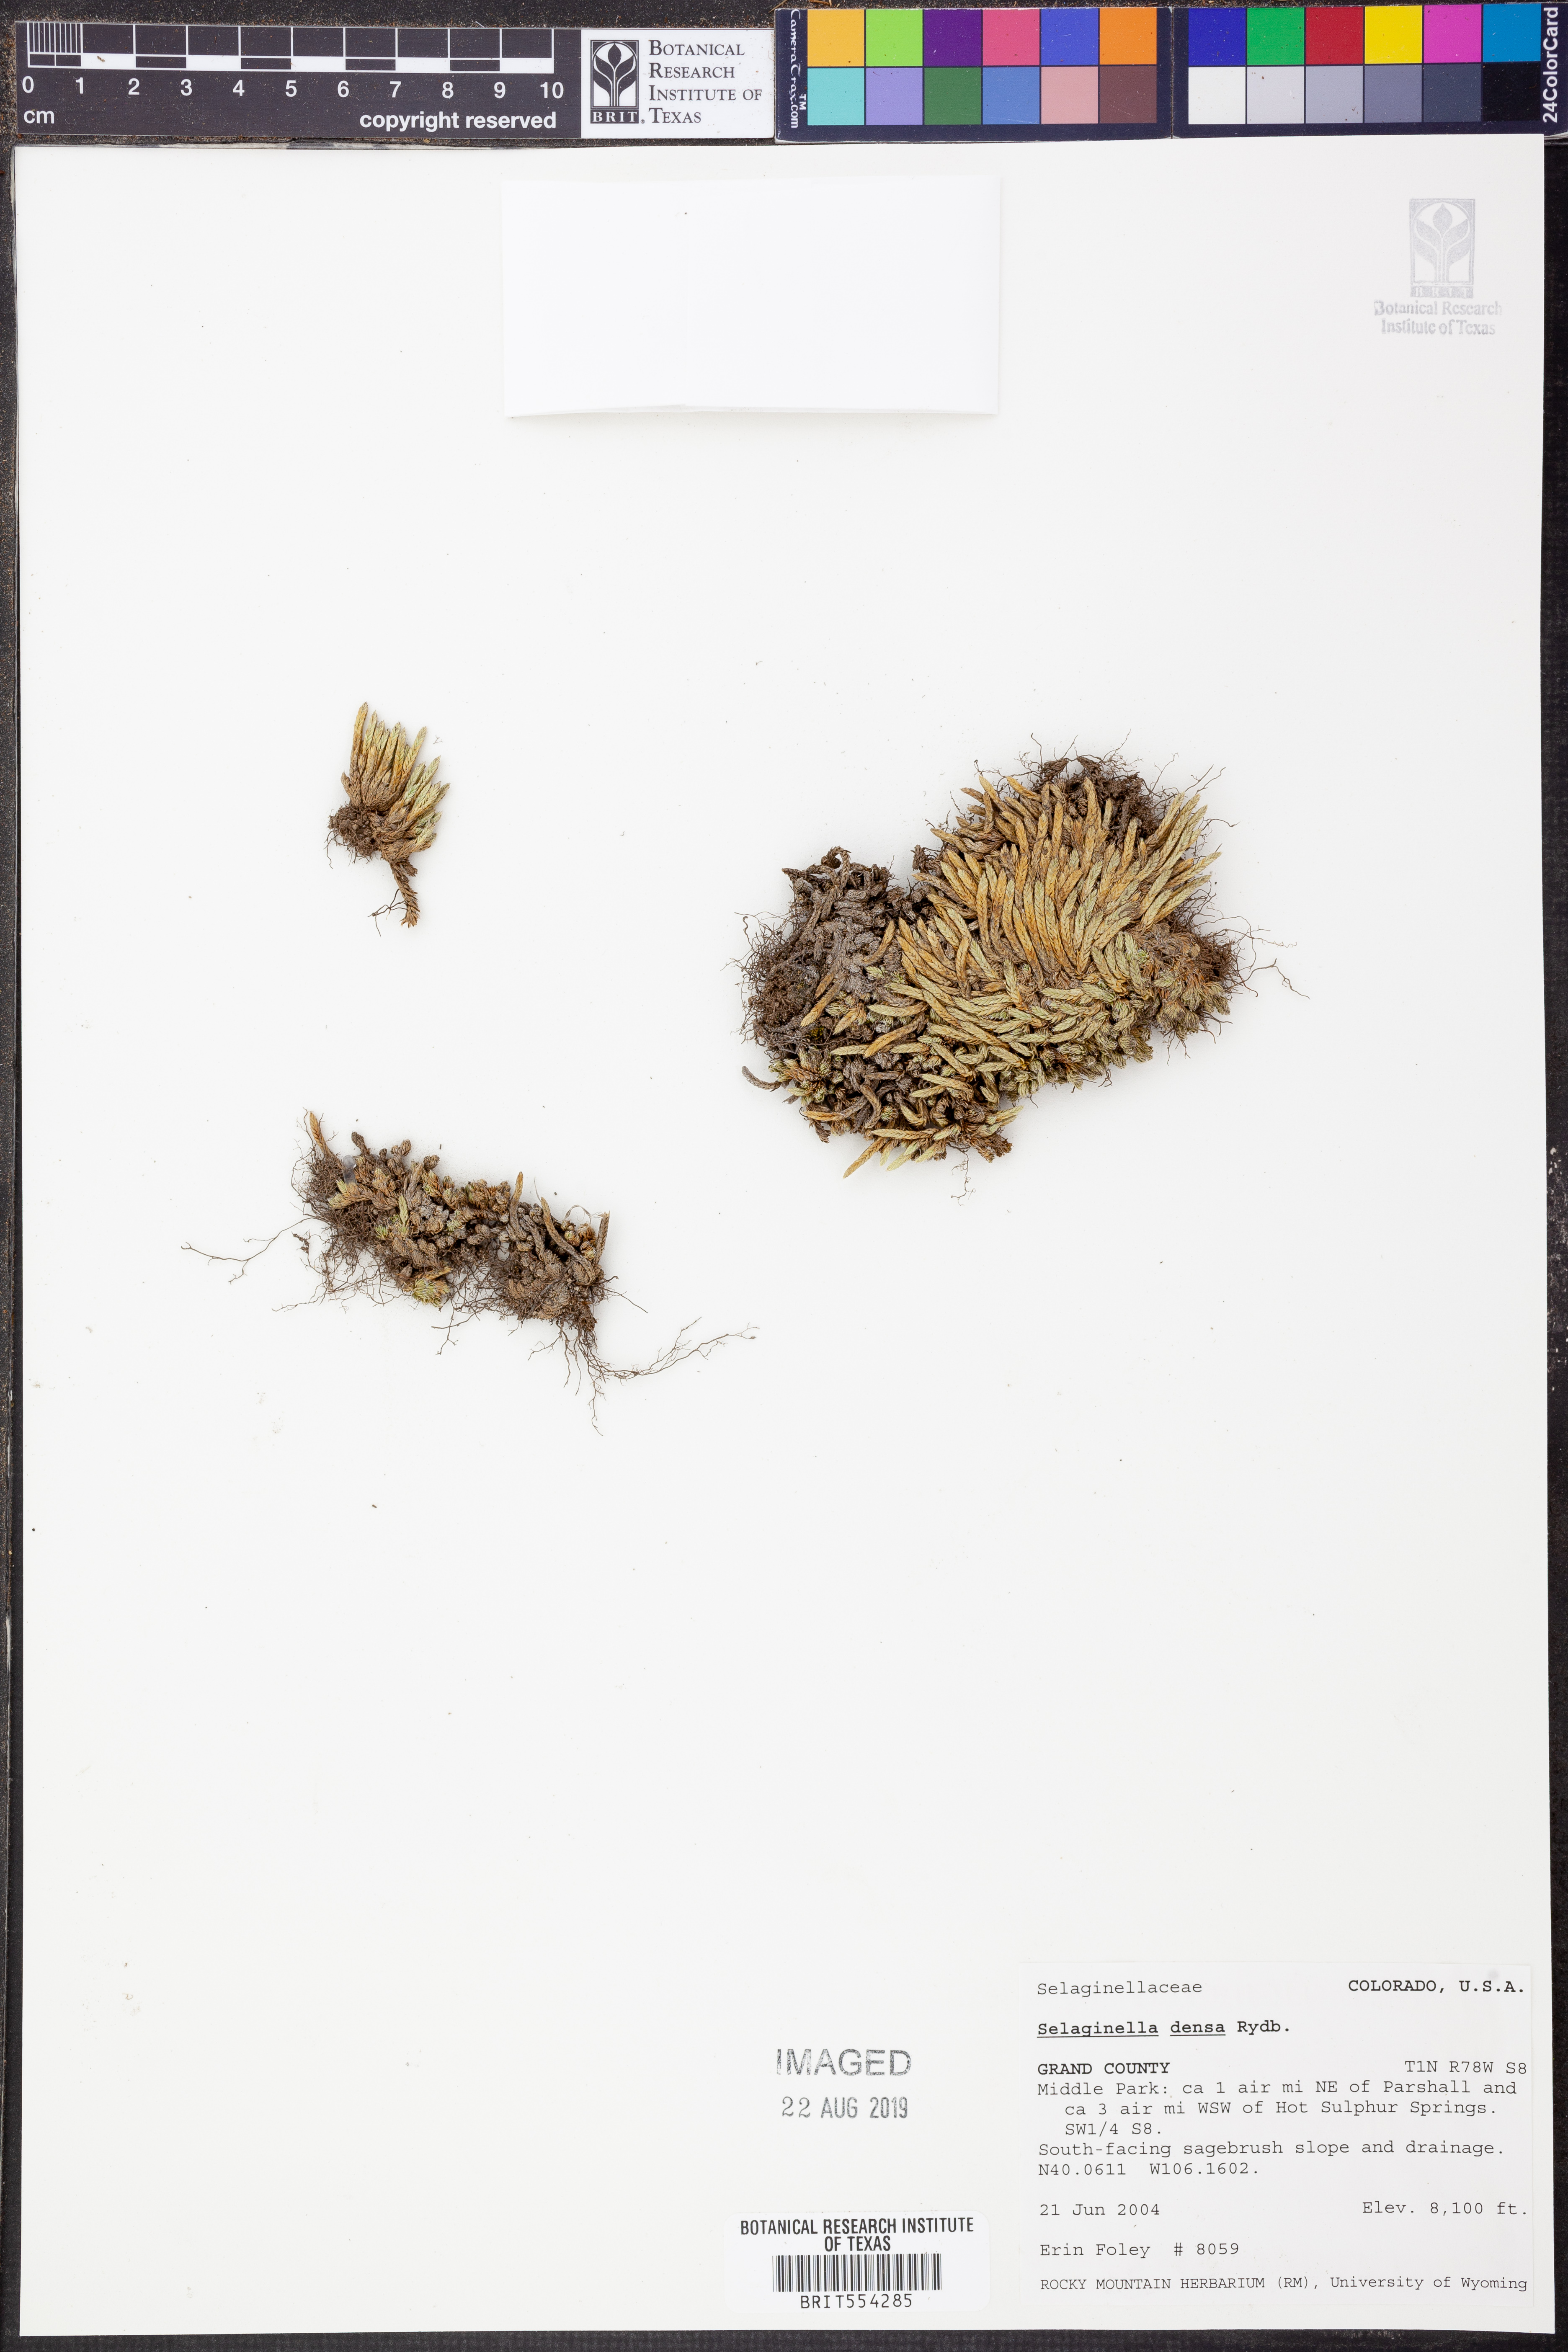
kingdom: Plantae
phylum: Tracheophyta
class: Lycopodiopsida
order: Selaginellales
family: Selaginellaceae
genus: Selaginella
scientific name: Selaginella densa
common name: Mountain spike-moss
